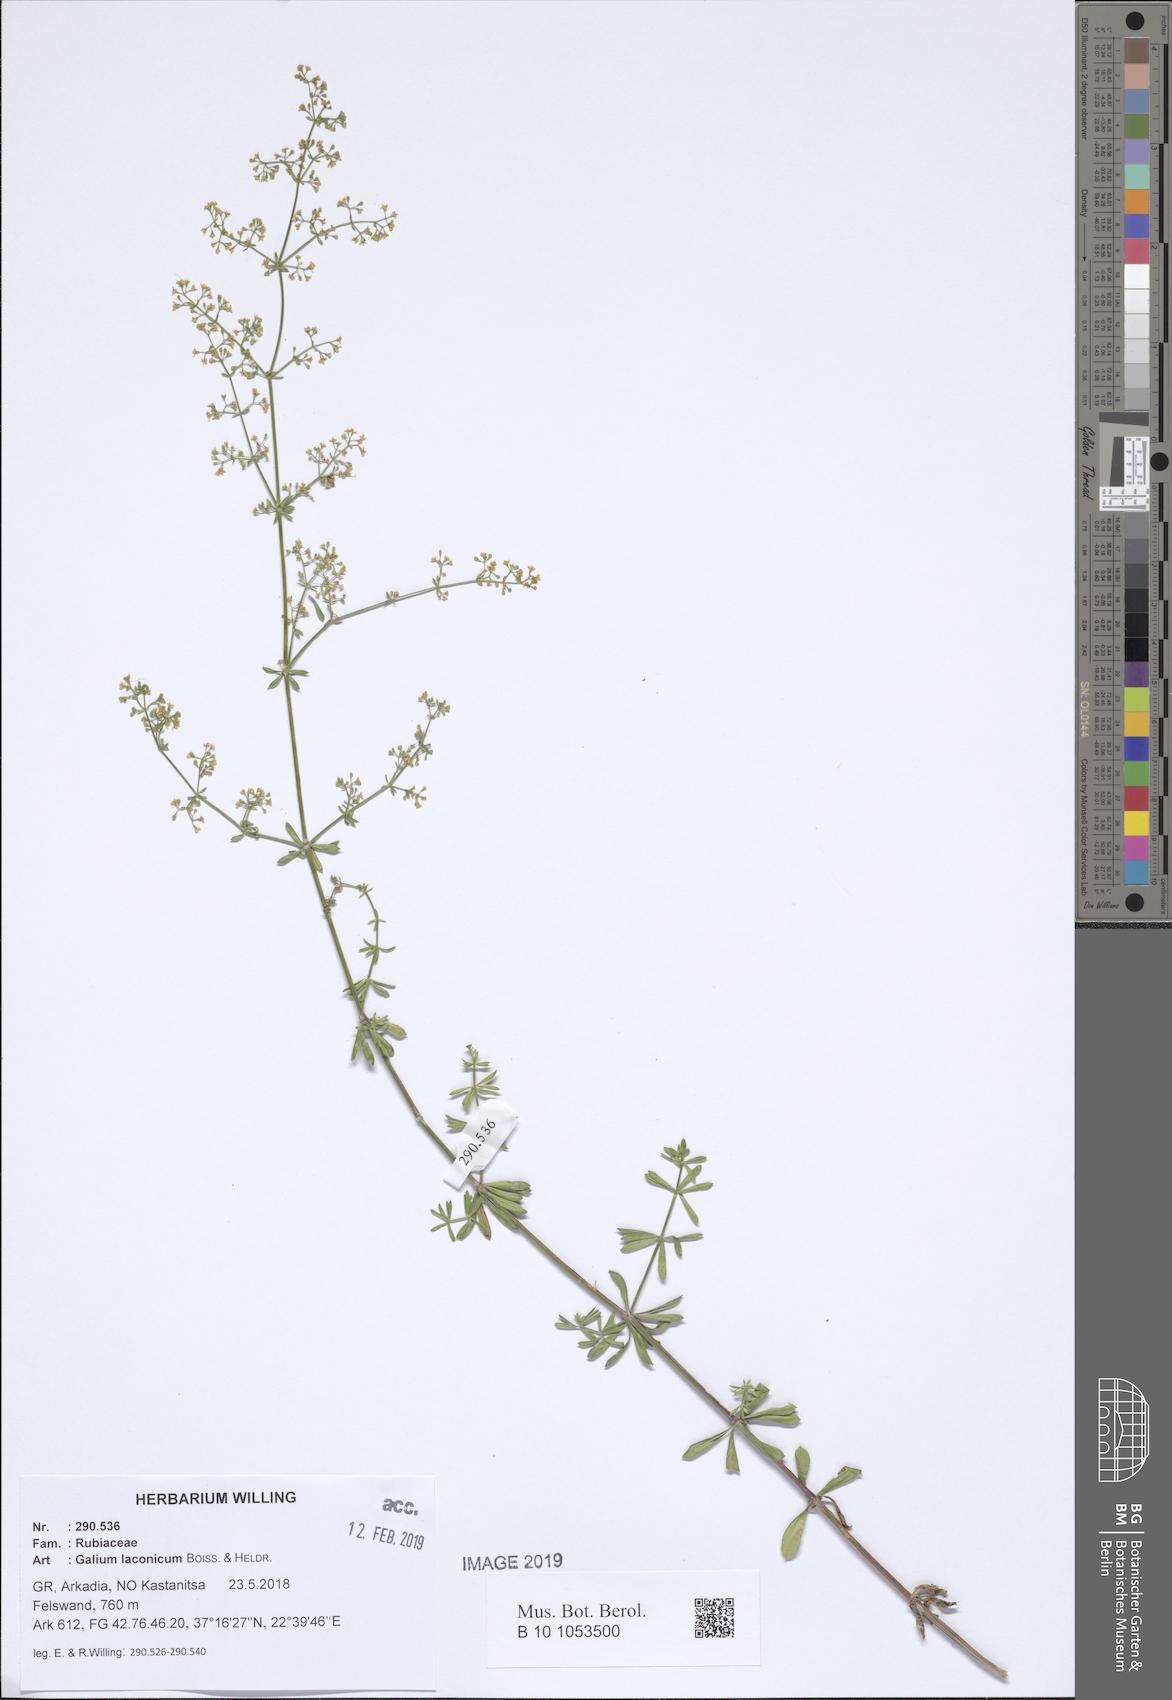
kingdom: Plantae
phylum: Tracheophyta
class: Magnoliopsida
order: Gentianales
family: Rubiaceae
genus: Galium
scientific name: Galium laconicum
